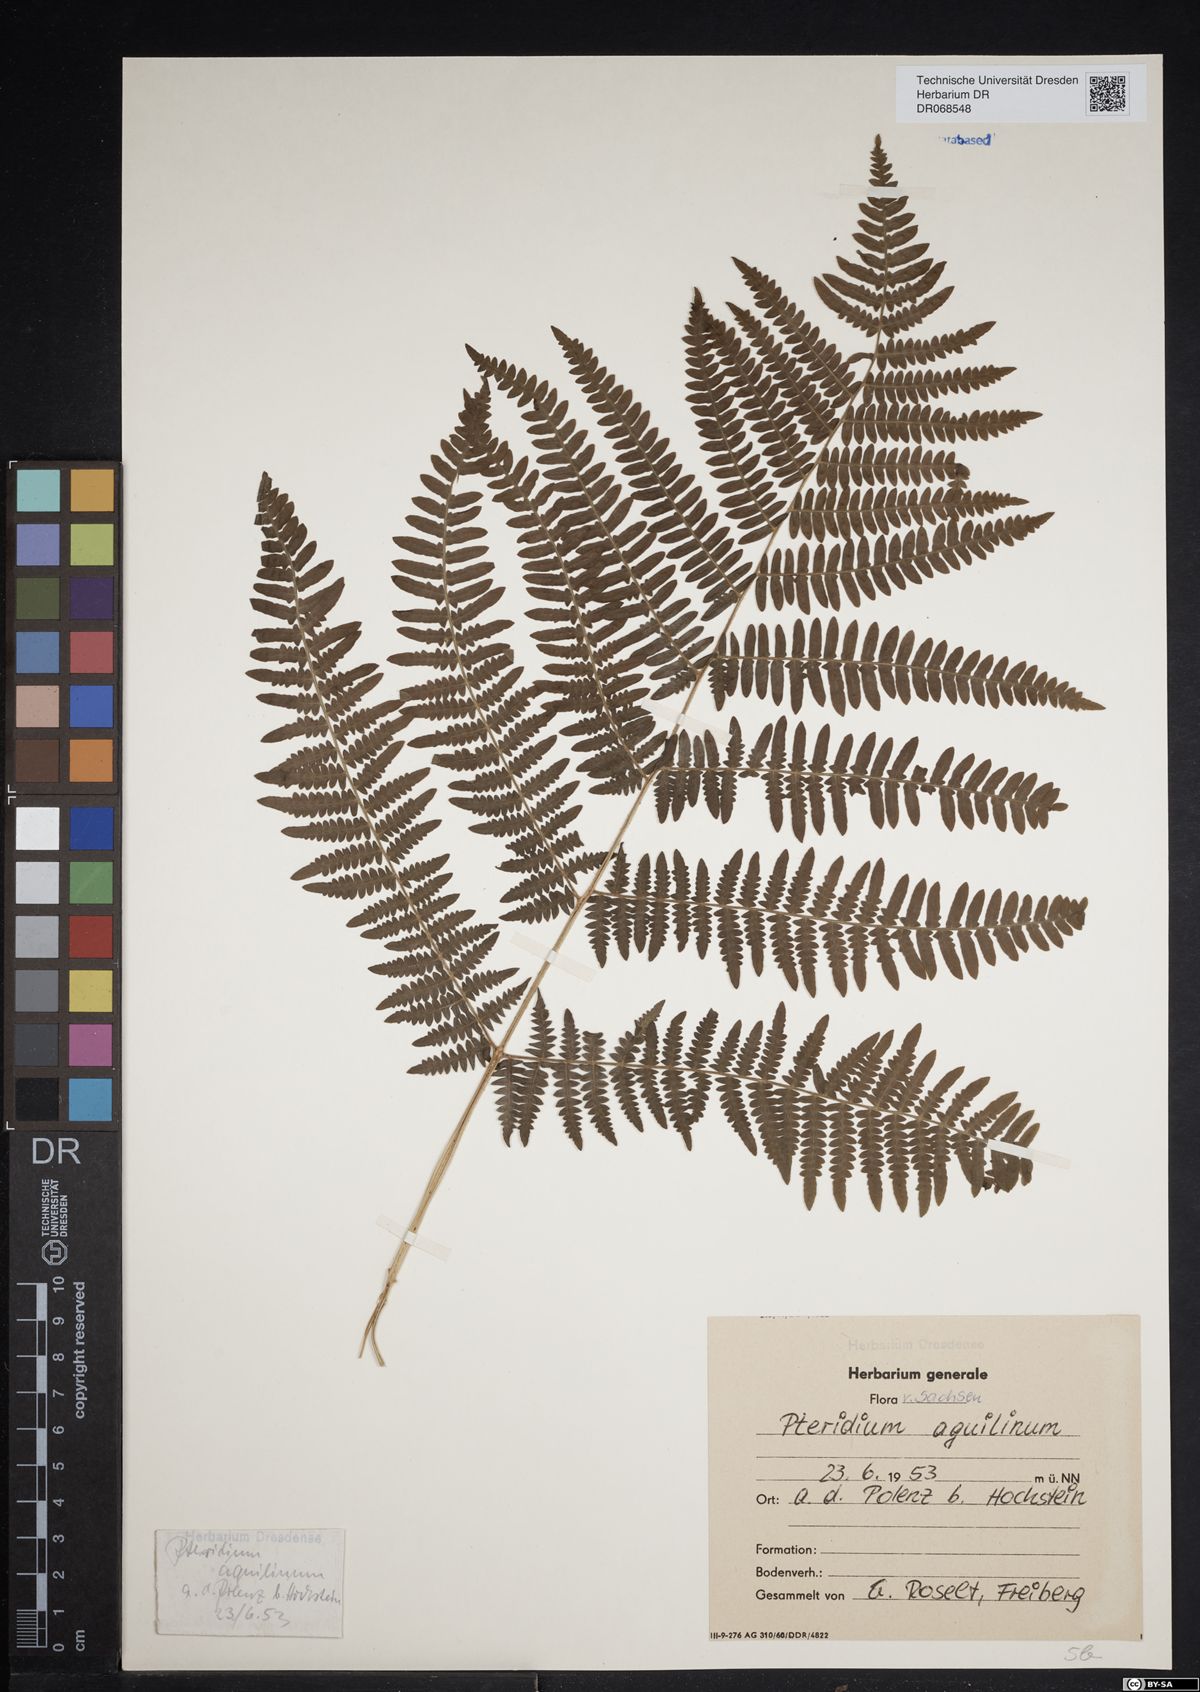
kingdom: Plantae
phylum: Tracheophyta
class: Polypodiopsida
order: Polypodiales
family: Dennstaedtiaceae
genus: Pteridium
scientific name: Pteridium aquilinum
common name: Bracken
